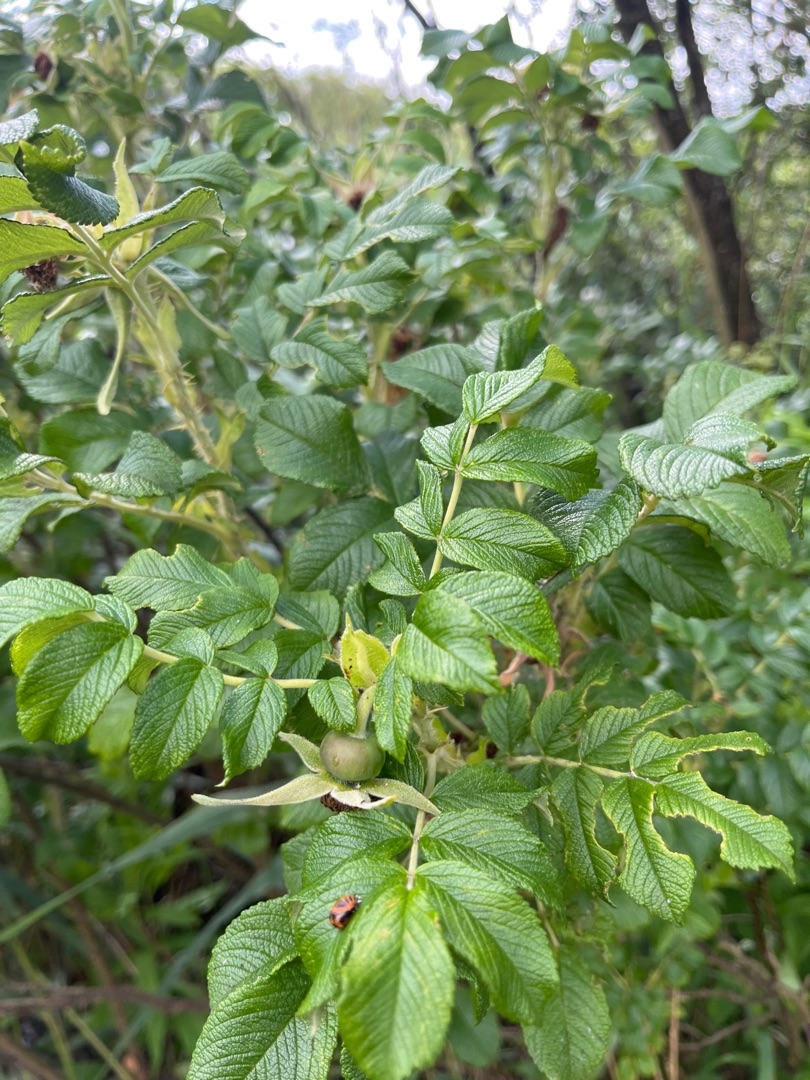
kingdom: Plantae
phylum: Tracheophyta
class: Magnoliopsida
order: Rosales
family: Rosaceae
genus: Rosa
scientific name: Rosa rugosa
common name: Rynket rose
